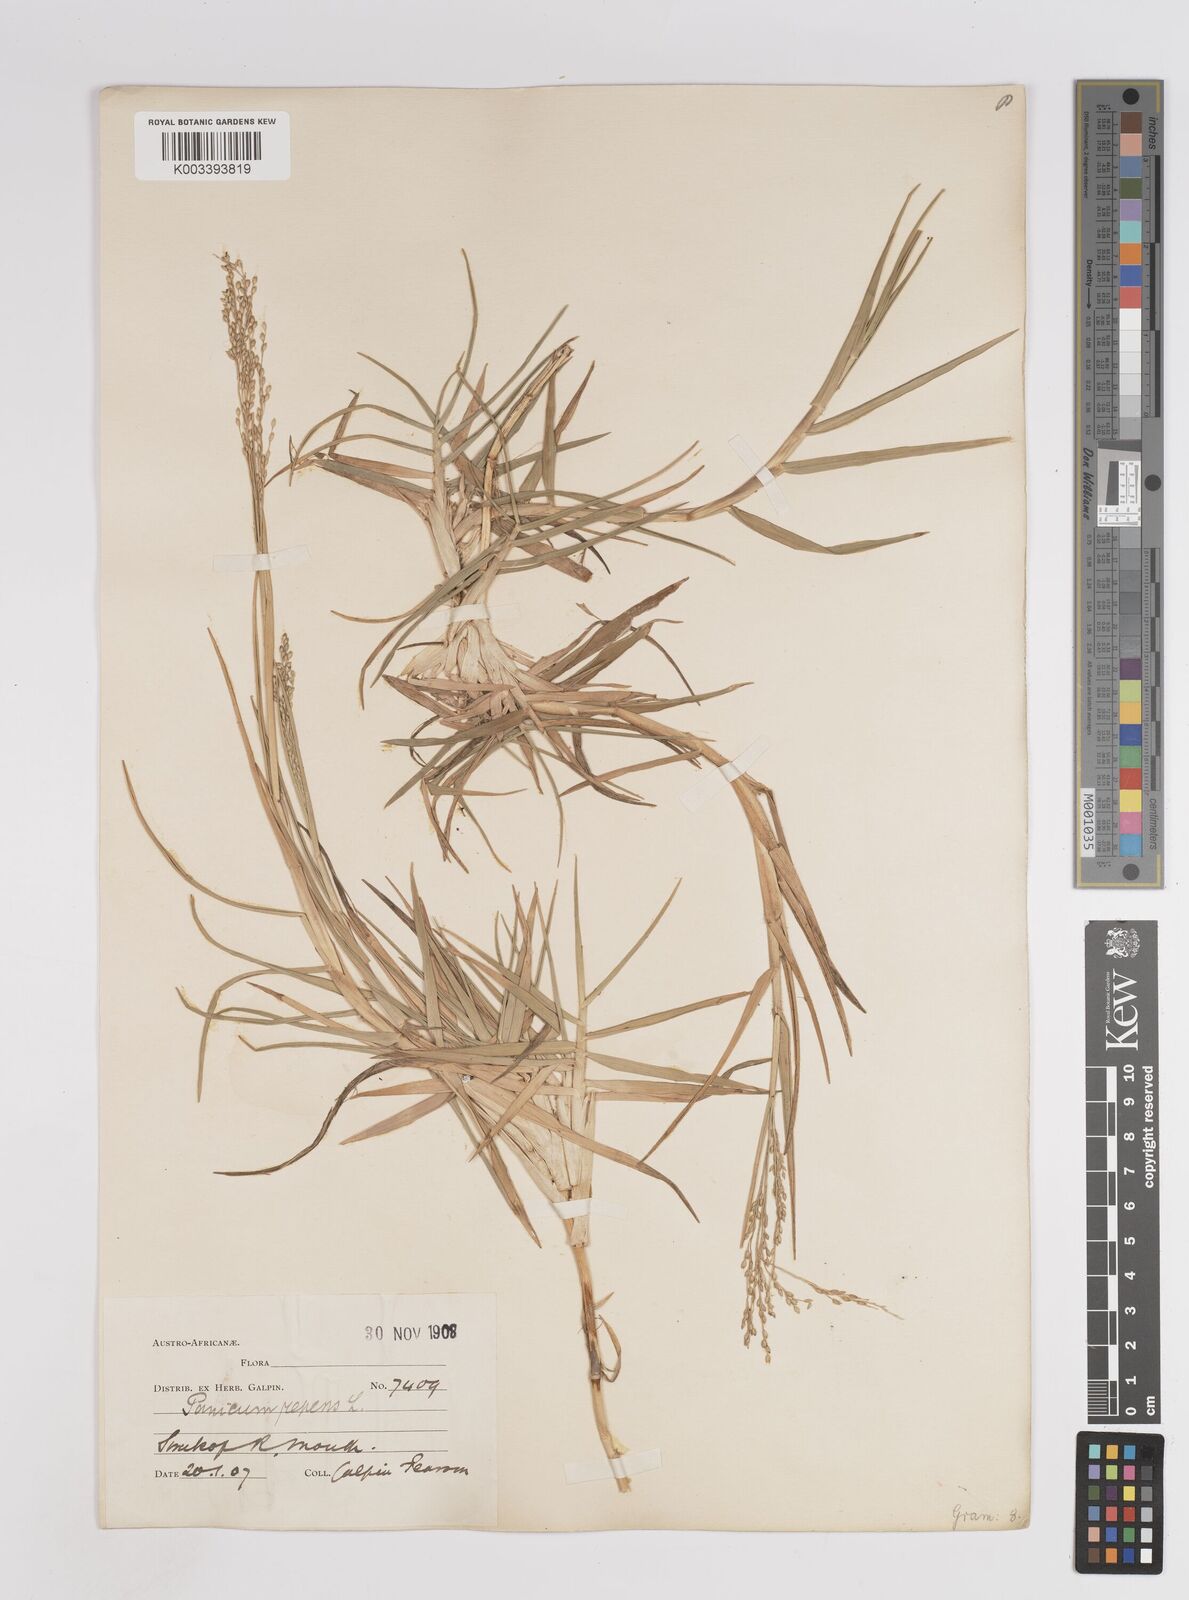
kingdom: Plantae
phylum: Tracheophyta
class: Liliopsida
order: Poales
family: Poaceae
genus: Panicum
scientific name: Panicum repens
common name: Torpedo grass
